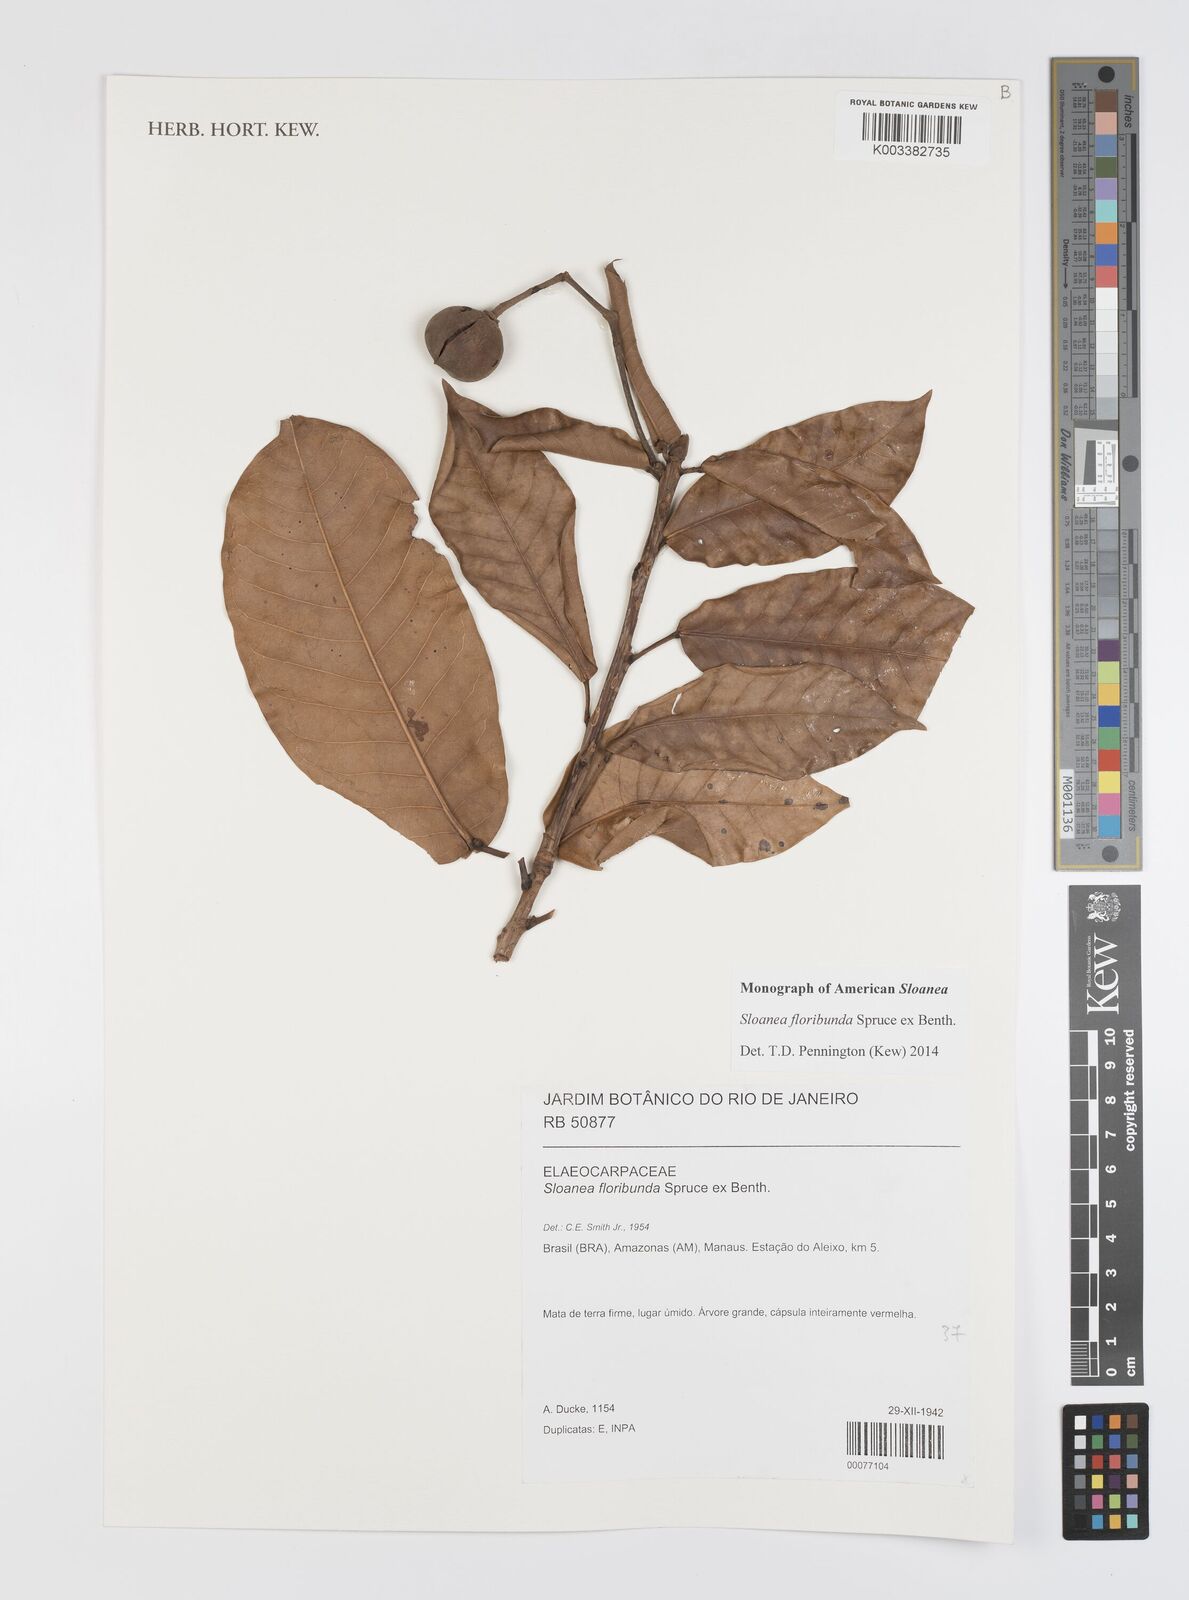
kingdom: Plantae
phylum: Tracheophyta
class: Magnoliopsida
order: Oxalidales
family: Elaeocarpaceae
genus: Sloanea
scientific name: Sloanea floribunda
